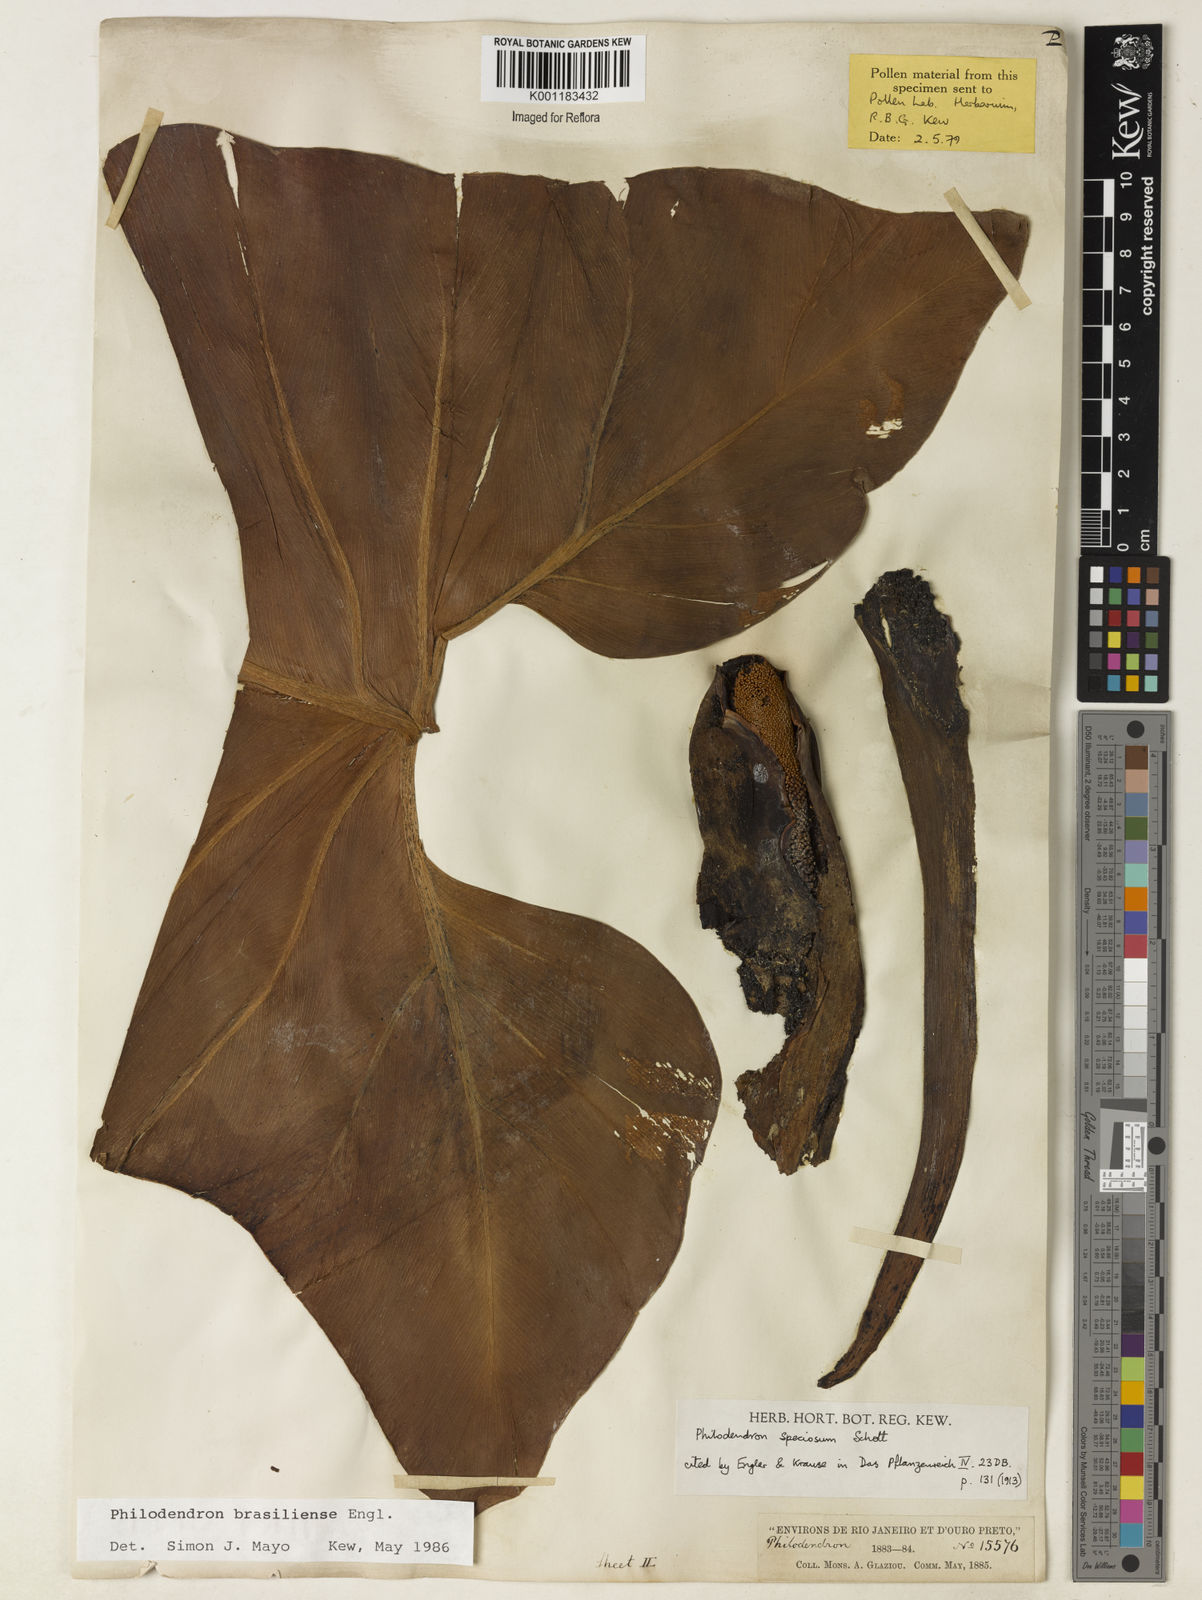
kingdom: Plantae
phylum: Tracheophyta
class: Liliopsida
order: Alismatales
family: Araceae
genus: Thaumatophyllum
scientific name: Thaumatophyllum brasiliense
